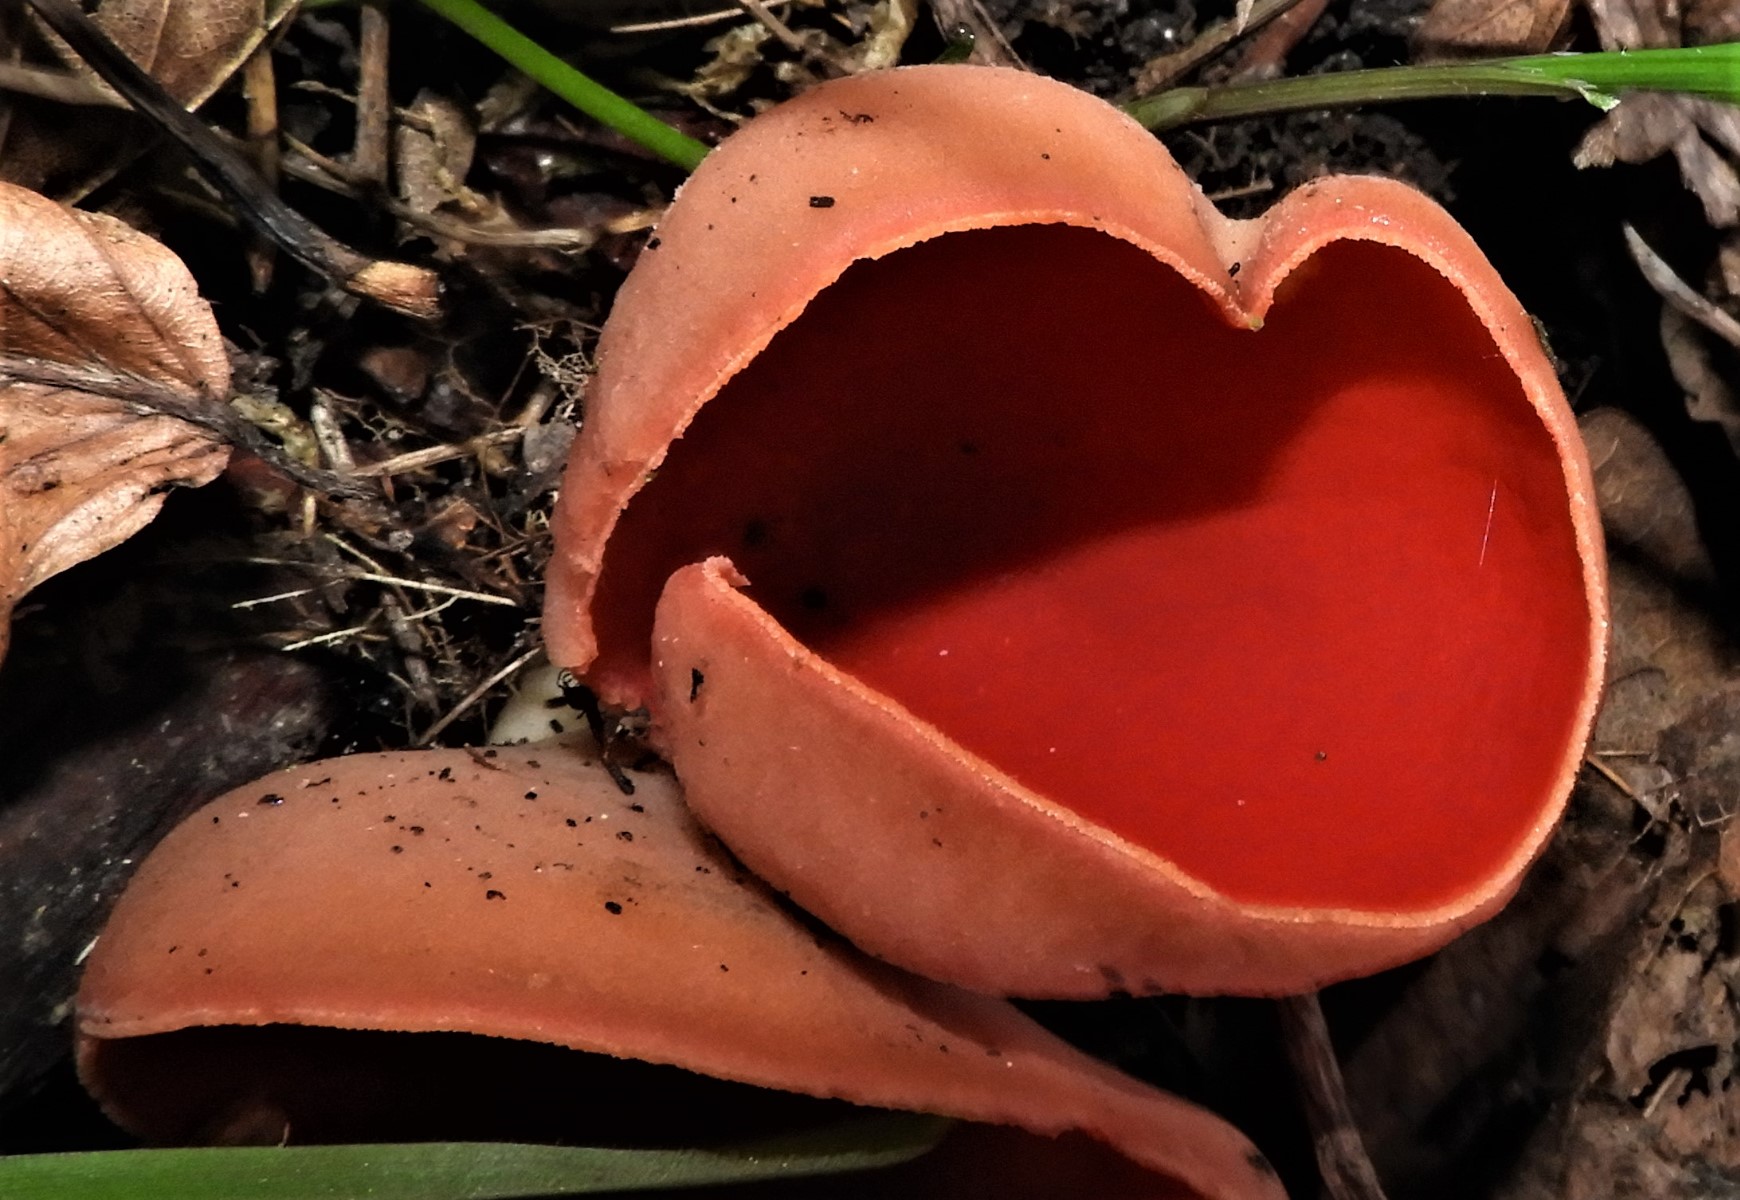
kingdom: Fungi
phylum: Ascomycota
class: Pezizomycetes
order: Pezizales
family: Sarcoscyphaceae
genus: Sarcoscypha
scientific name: Sarcoscypha austriaca
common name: krølhåret pragtbæger
